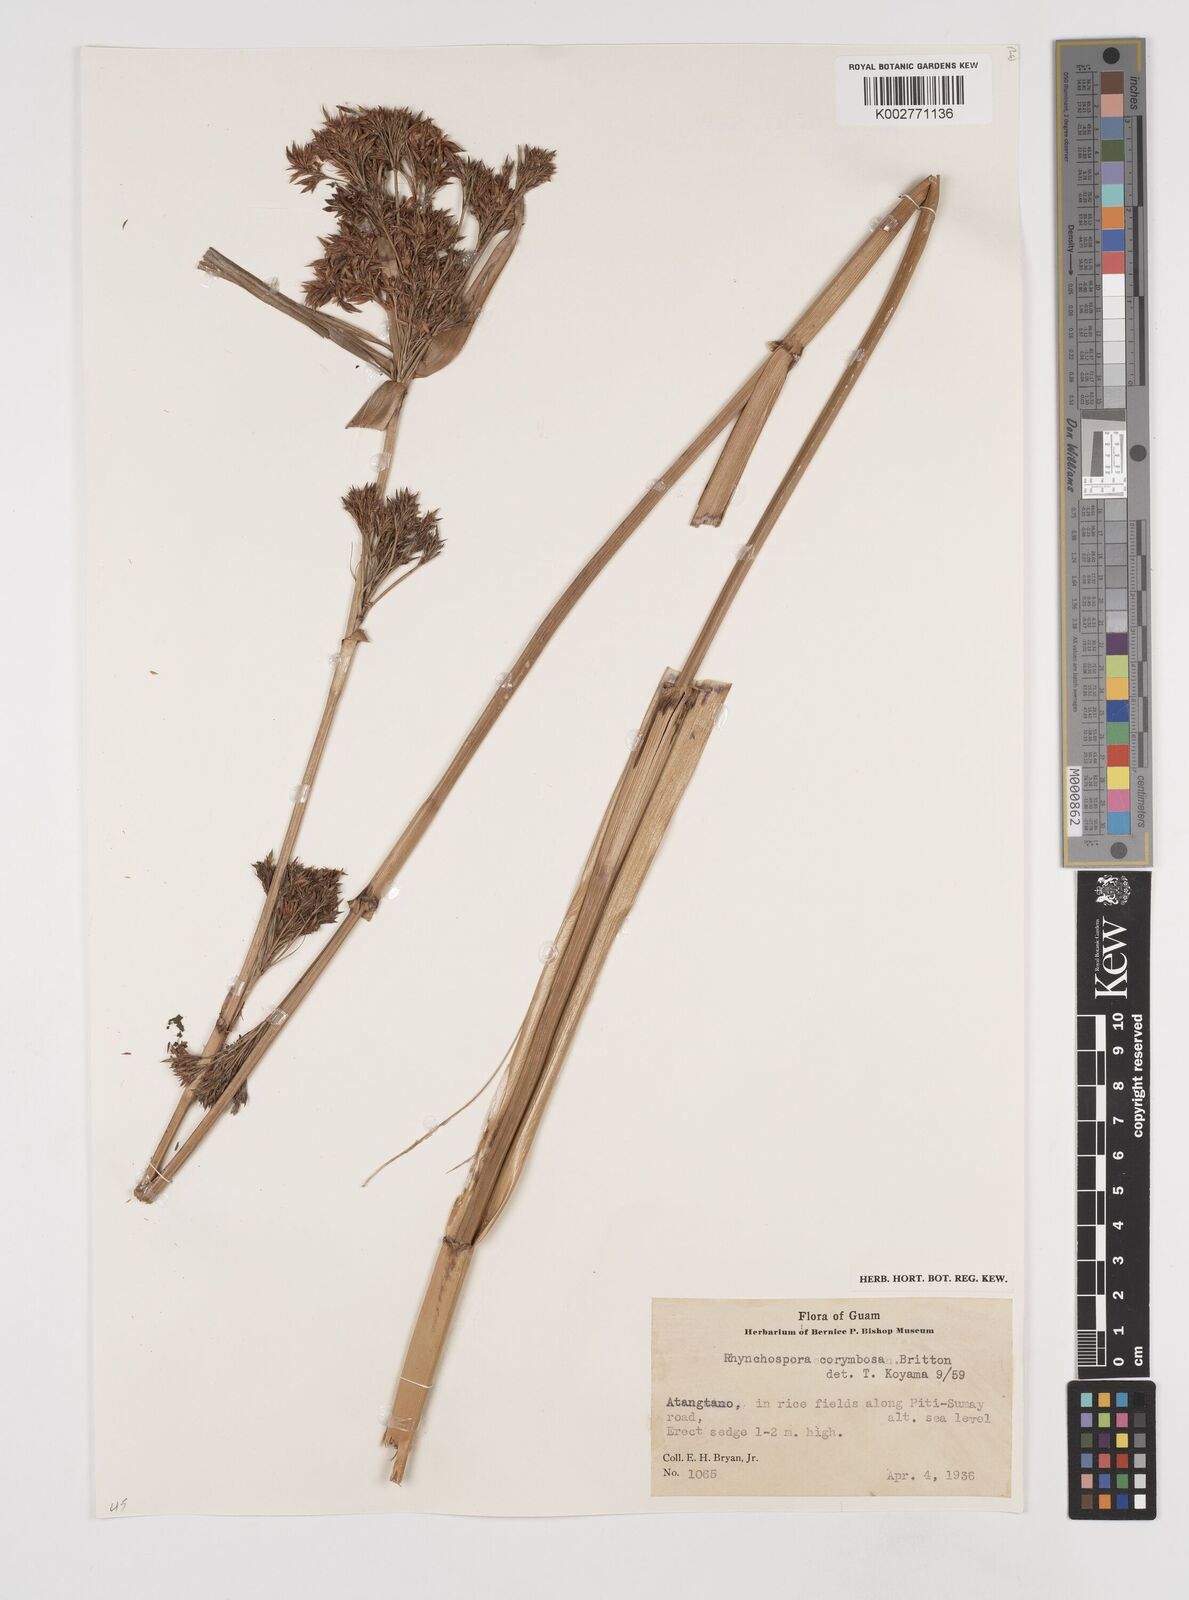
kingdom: Plantae
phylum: Tracheophyta
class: Liliopsida
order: Poales
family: Cyperaceae
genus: Rhynchospora
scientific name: Rhynchospora corymbosa
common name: Golden beak sedge
